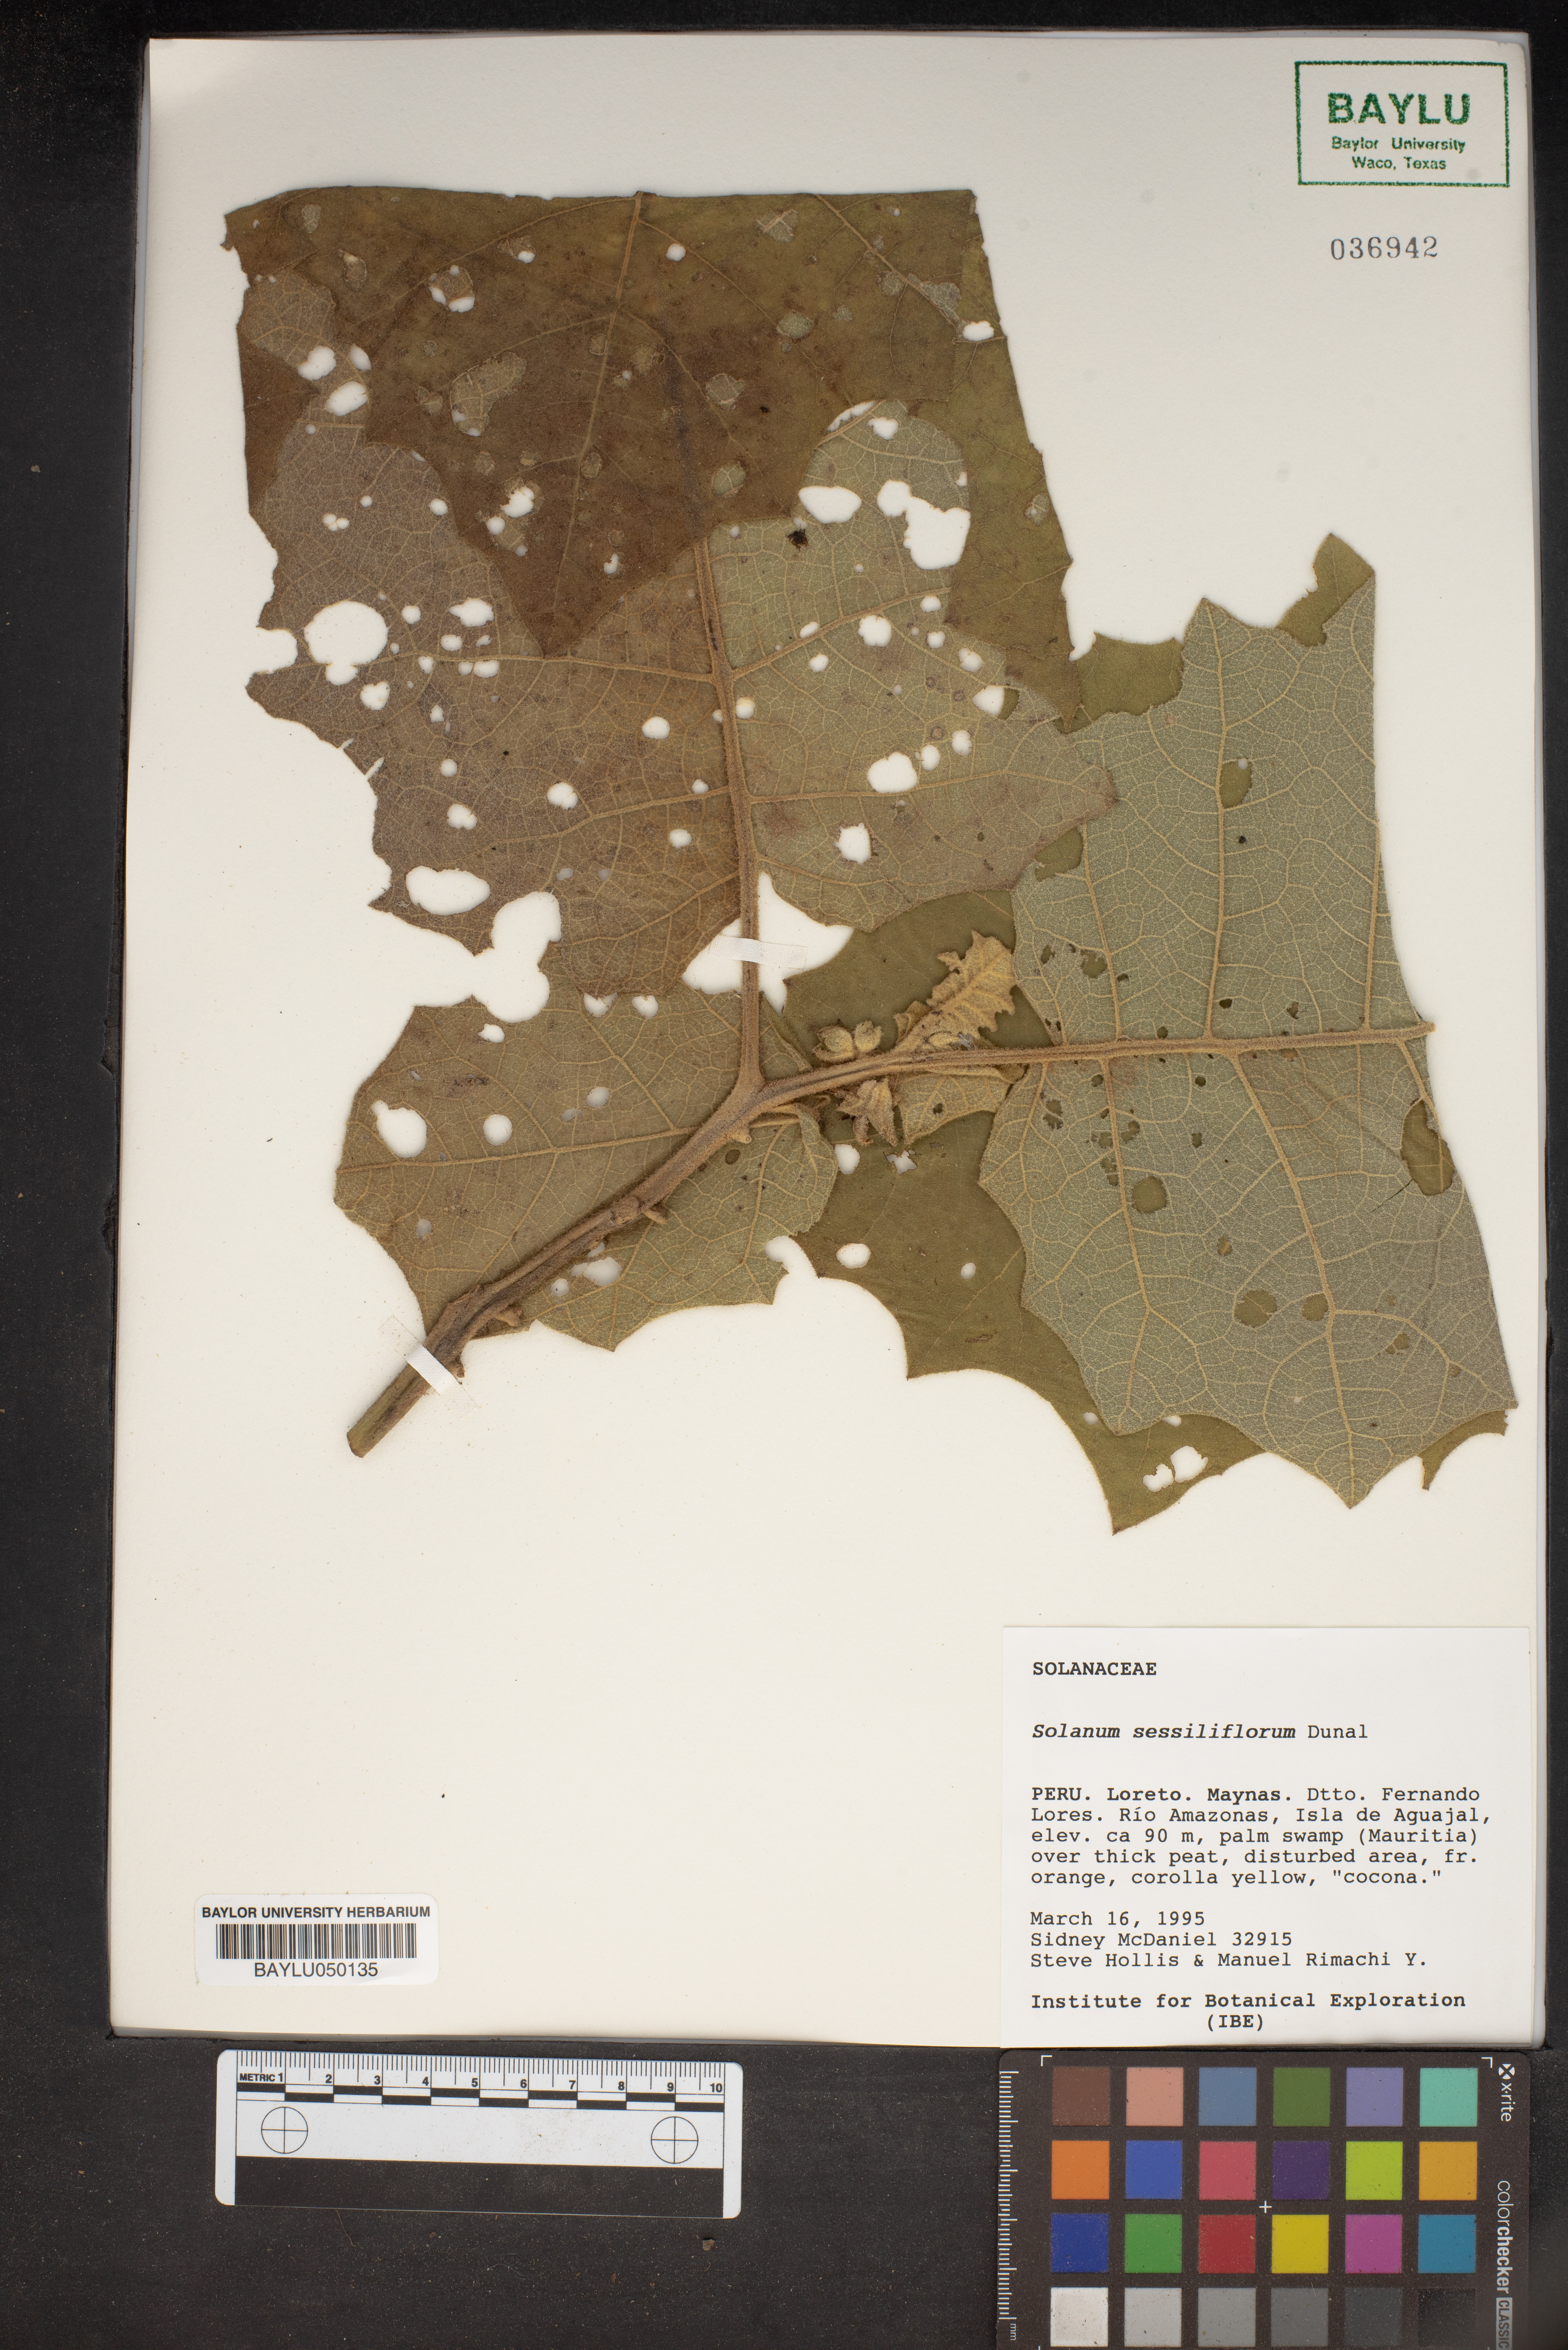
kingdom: Plantae
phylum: Tracheophyta
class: Magnoliopsida
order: Solanales
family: Solanaceae
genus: Solanum
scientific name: Solanum sessiliflorum
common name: Orinoco-apple
